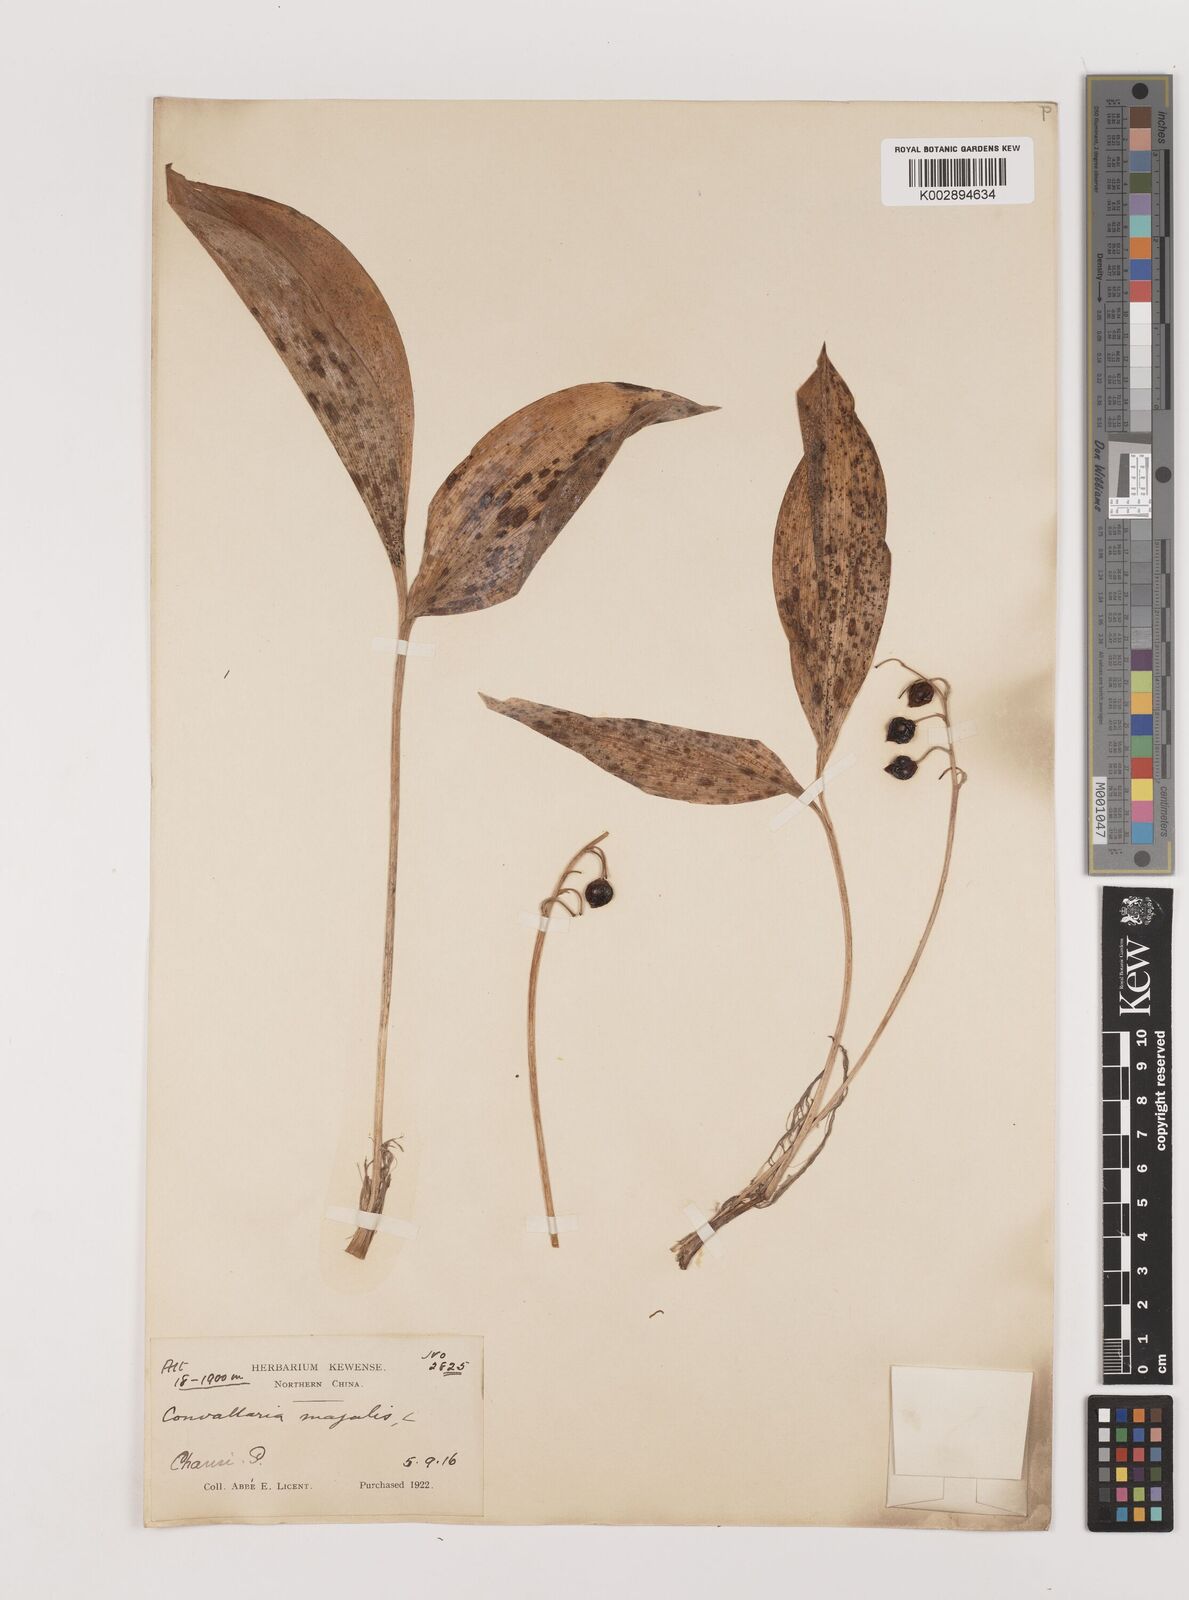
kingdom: Plantae
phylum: Tracheophyta
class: Liliopsida
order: Asparagales
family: Asparagaceae
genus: Ophiopogon
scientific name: Ophiopogon
